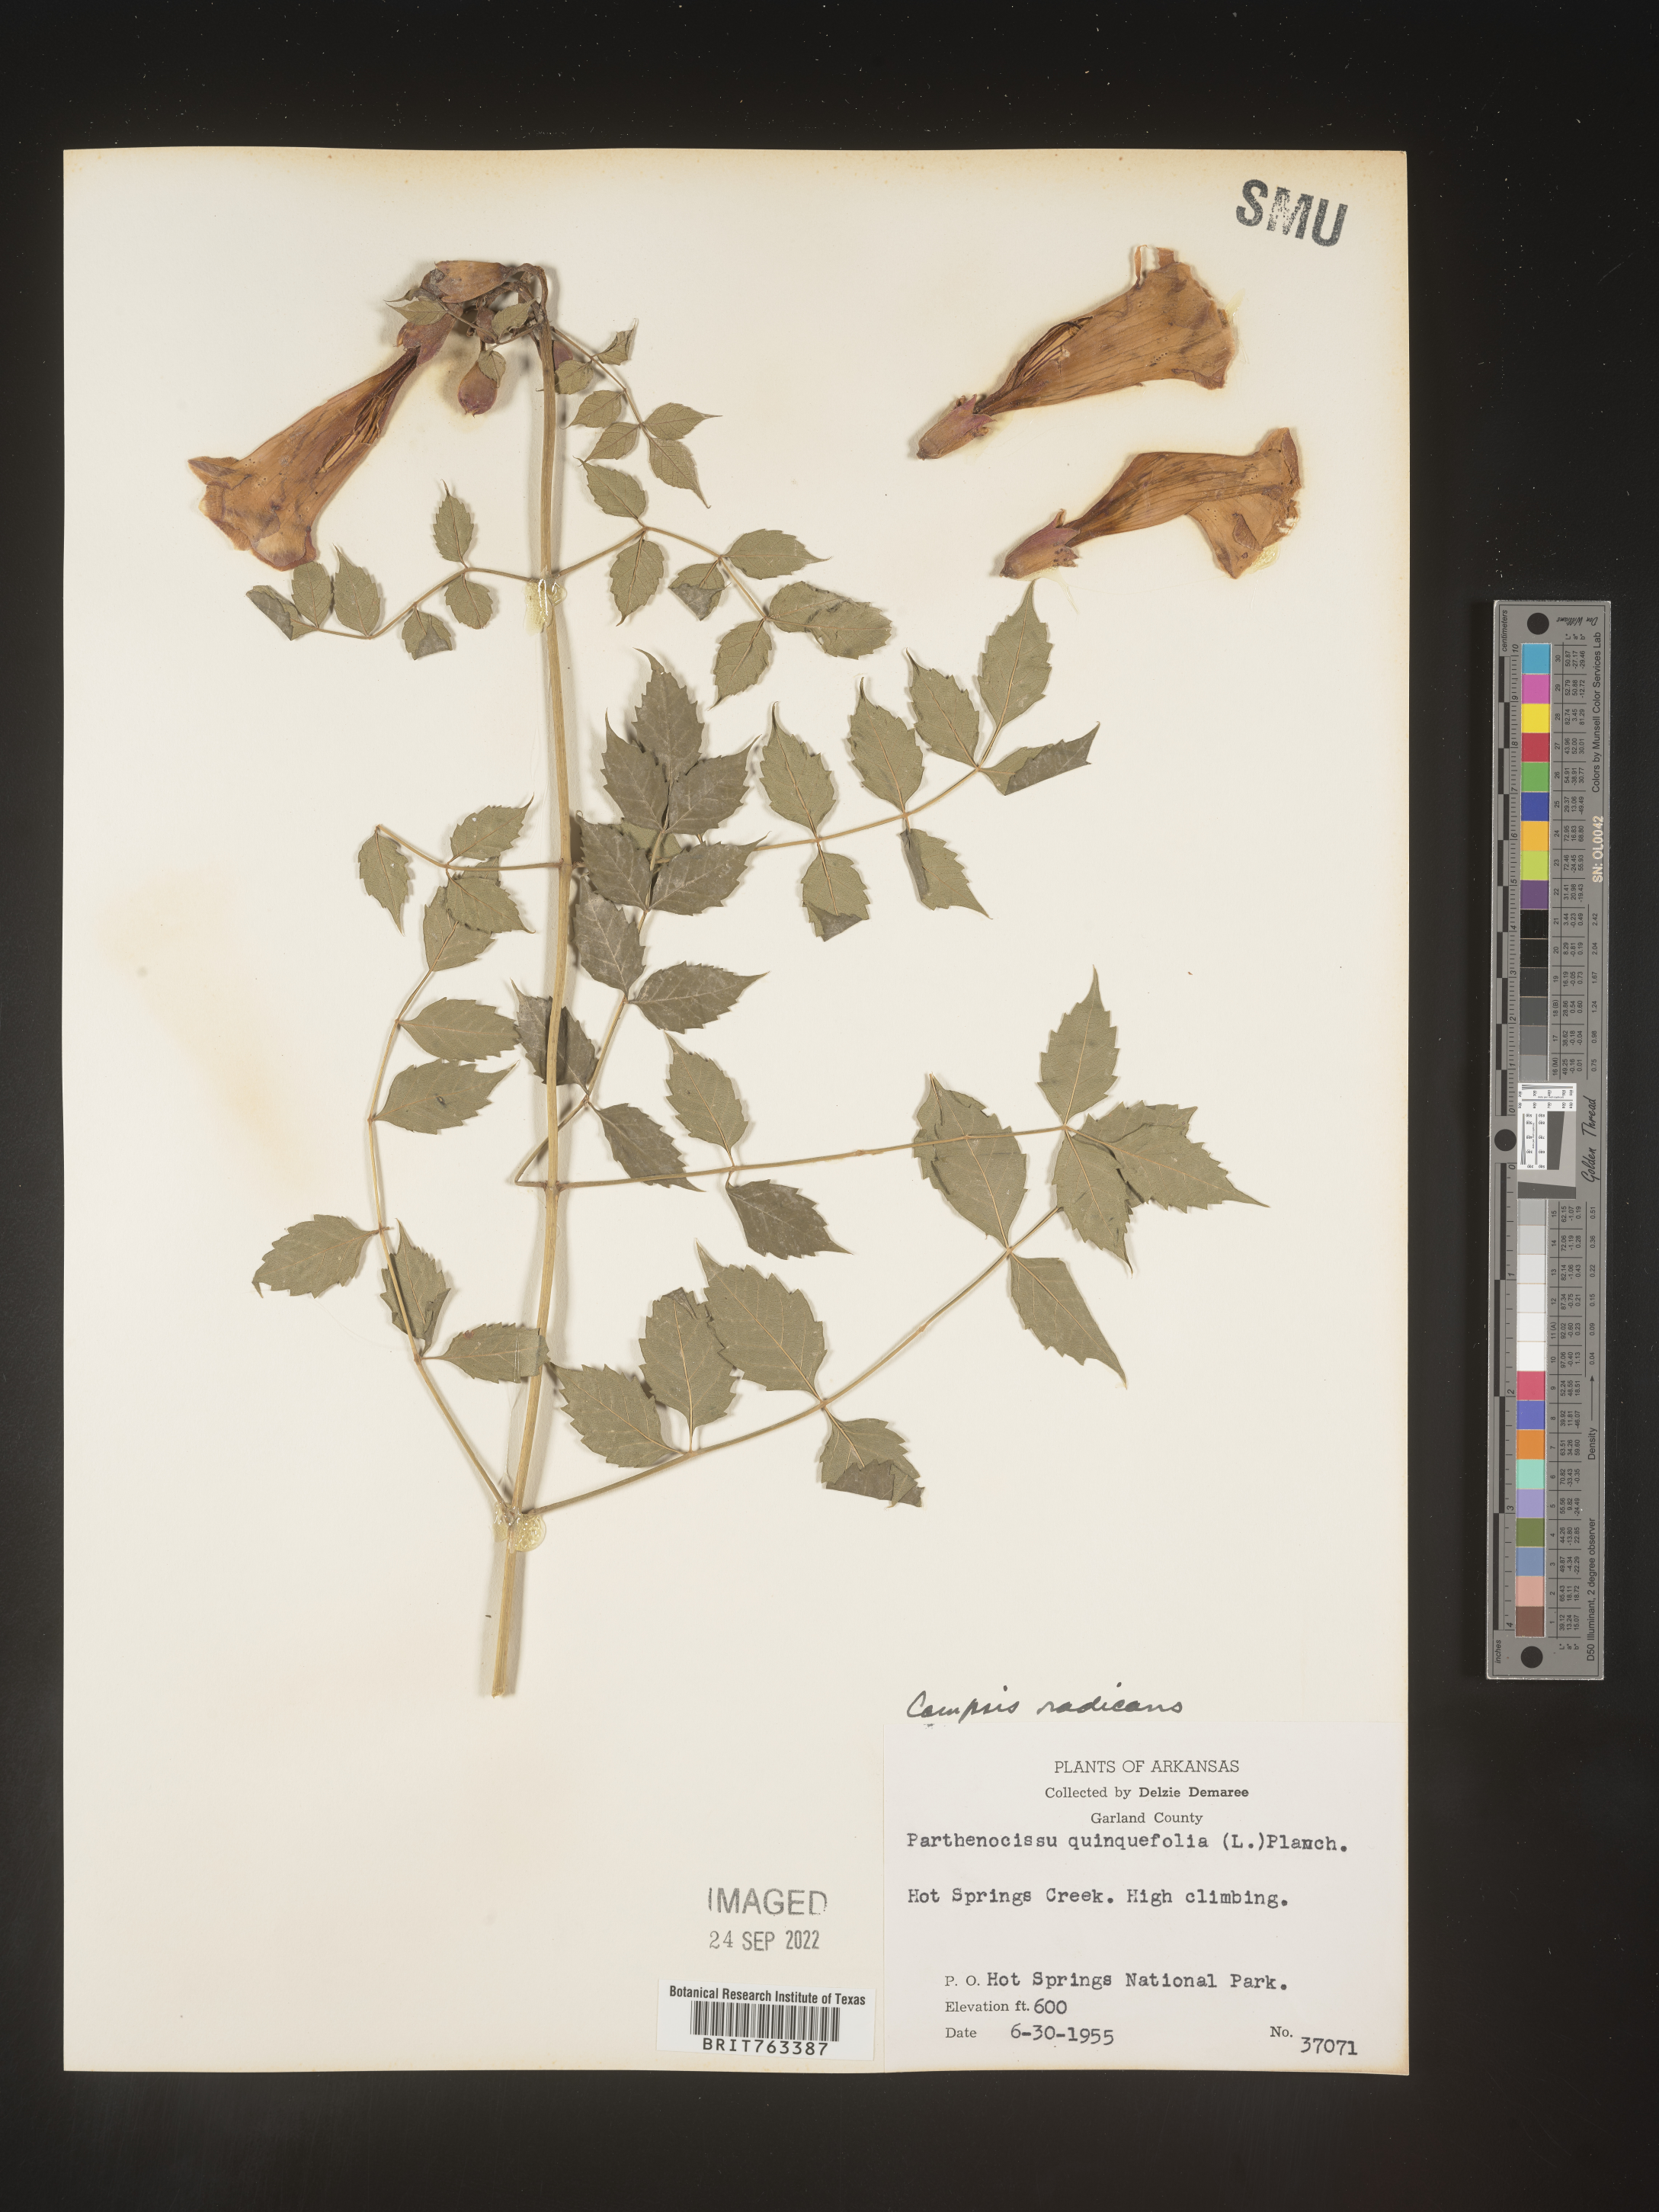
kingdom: Plantae
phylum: Tracheophyta
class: Magnoliopsida
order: Lamiales
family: Bignoniaceae
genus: Campsis
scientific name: Campsis radicans
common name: Trumpet-creeper
